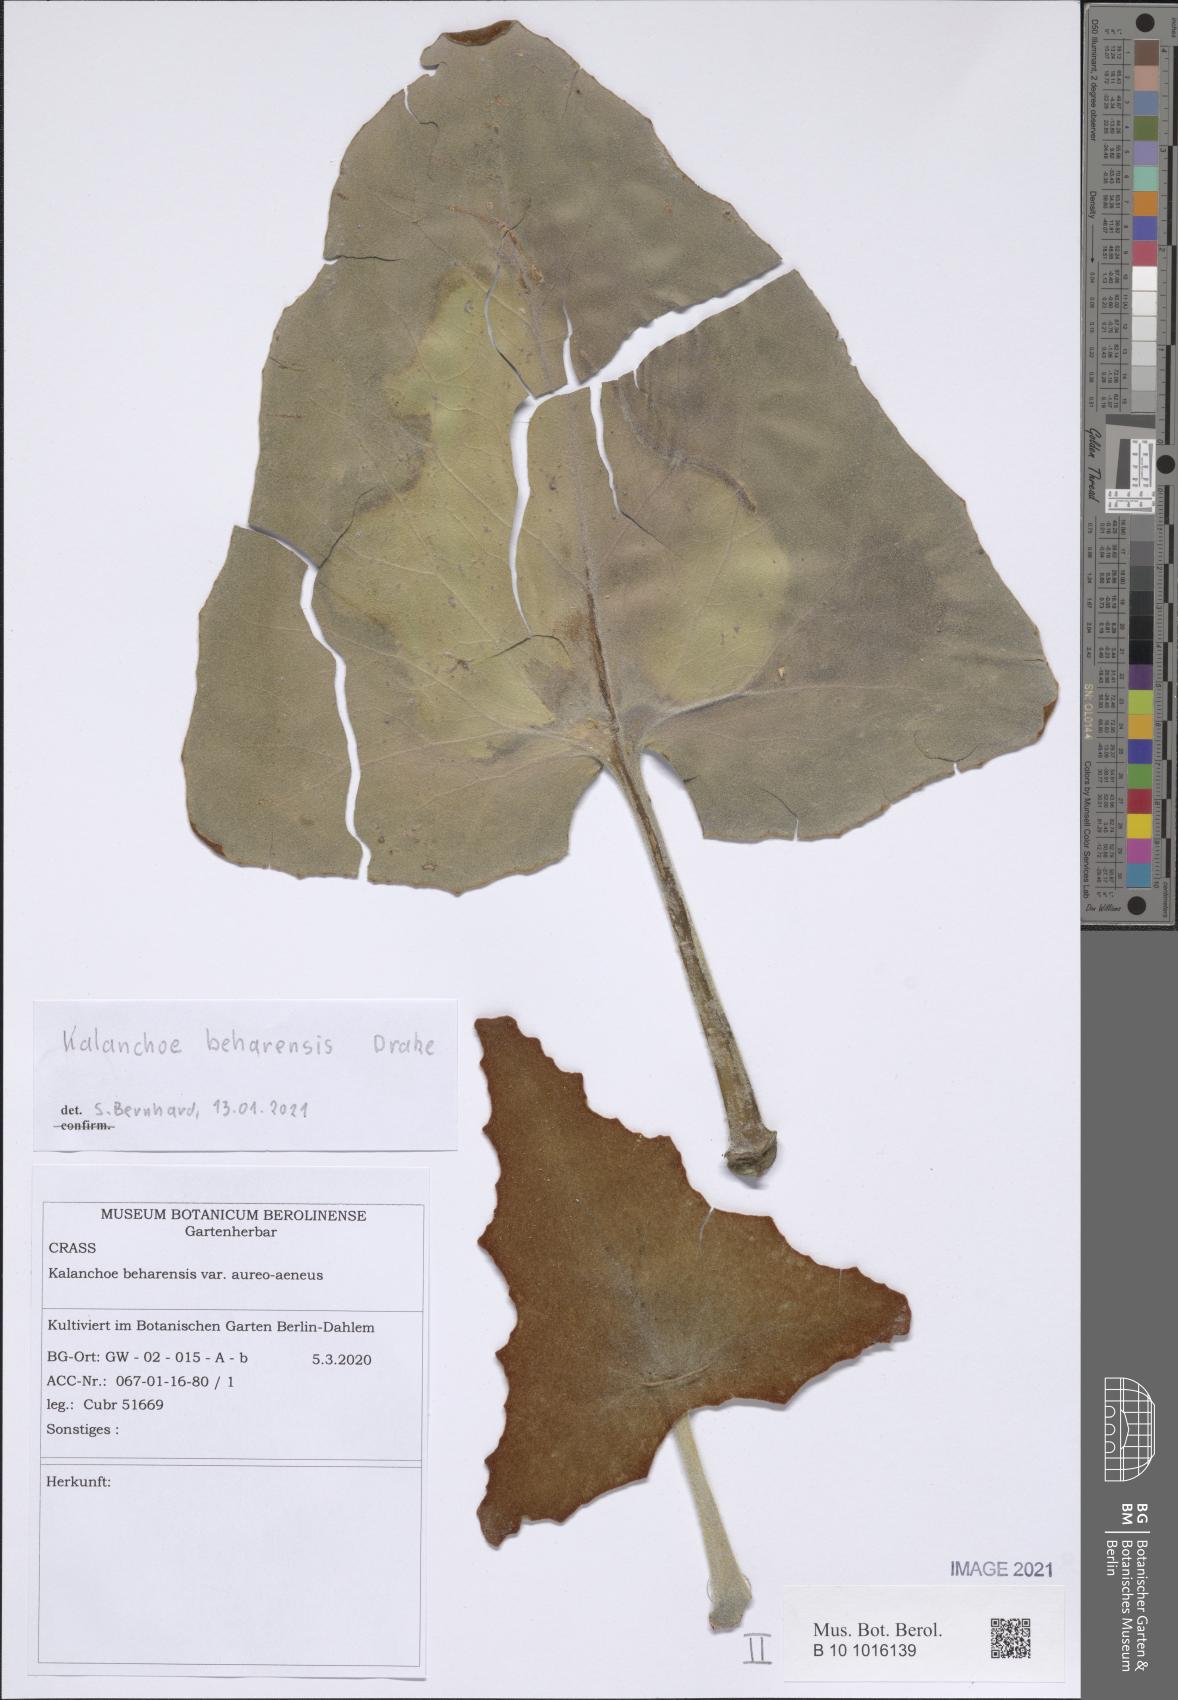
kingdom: Plantae
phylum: Tracheophyta
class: Magnoliopsida
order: Saxifragales
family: Crassulaceae
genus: Kalanchoe
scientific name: Kalanchoe beharensis
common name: Velvet leaf
